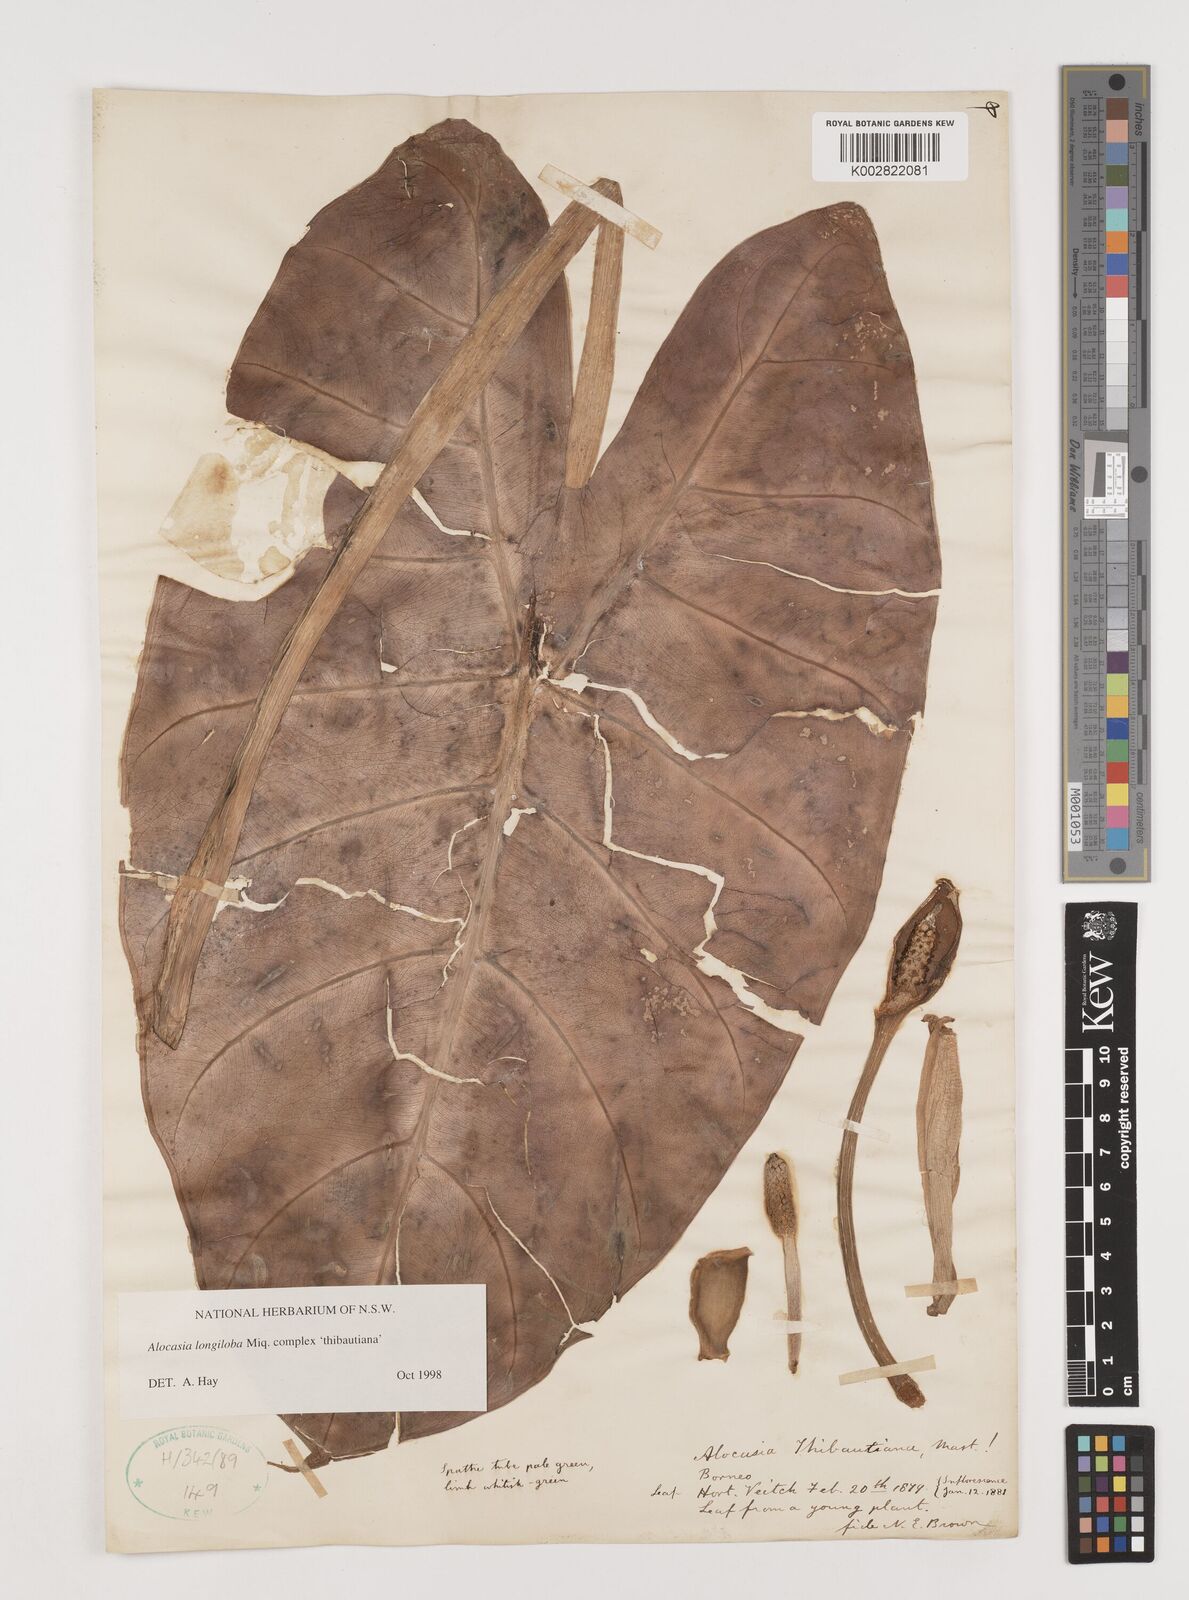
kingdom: Plantae
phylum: Tracheophyta
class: Liliopsida
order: Alismatales
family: Araceae
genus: Alocasia
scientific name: Alocasia longiloba
